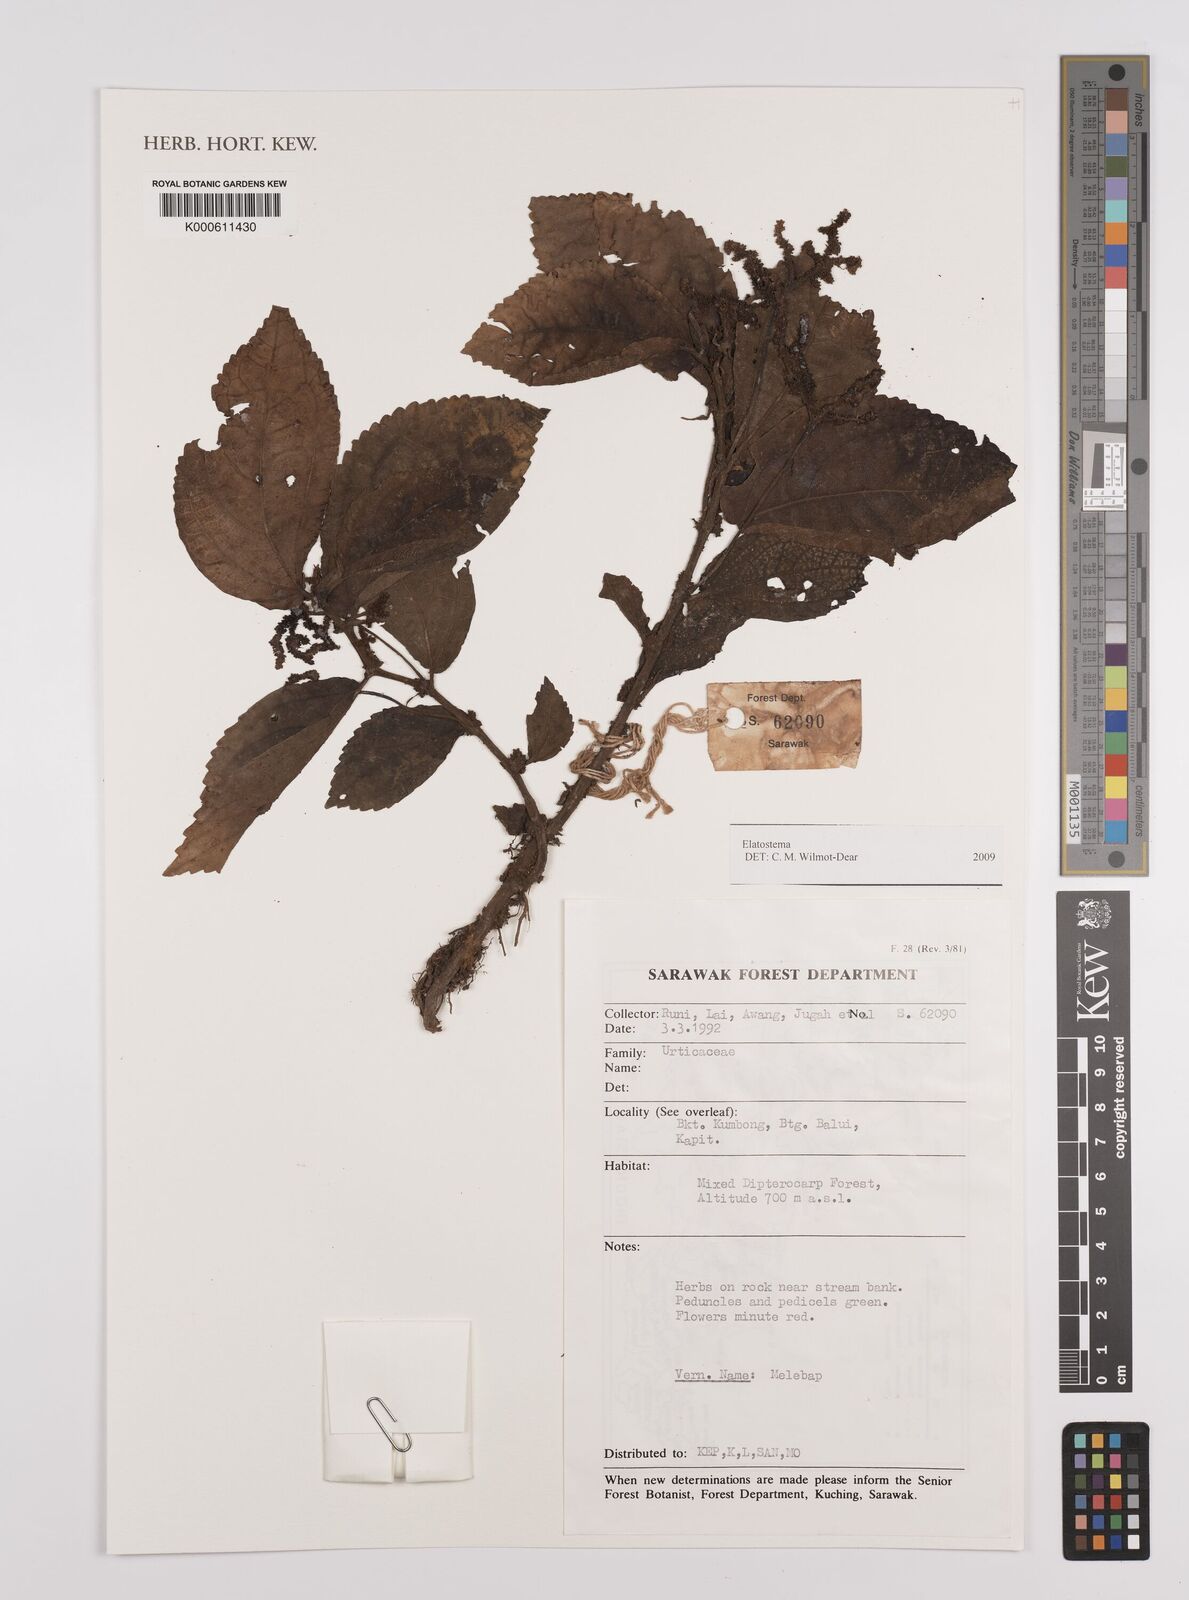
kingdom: Plantae
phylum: Tracheophyta
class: Magnoliopsida
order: Rosales
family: Urticaceae
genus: Elatostema
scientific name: Elatostema
